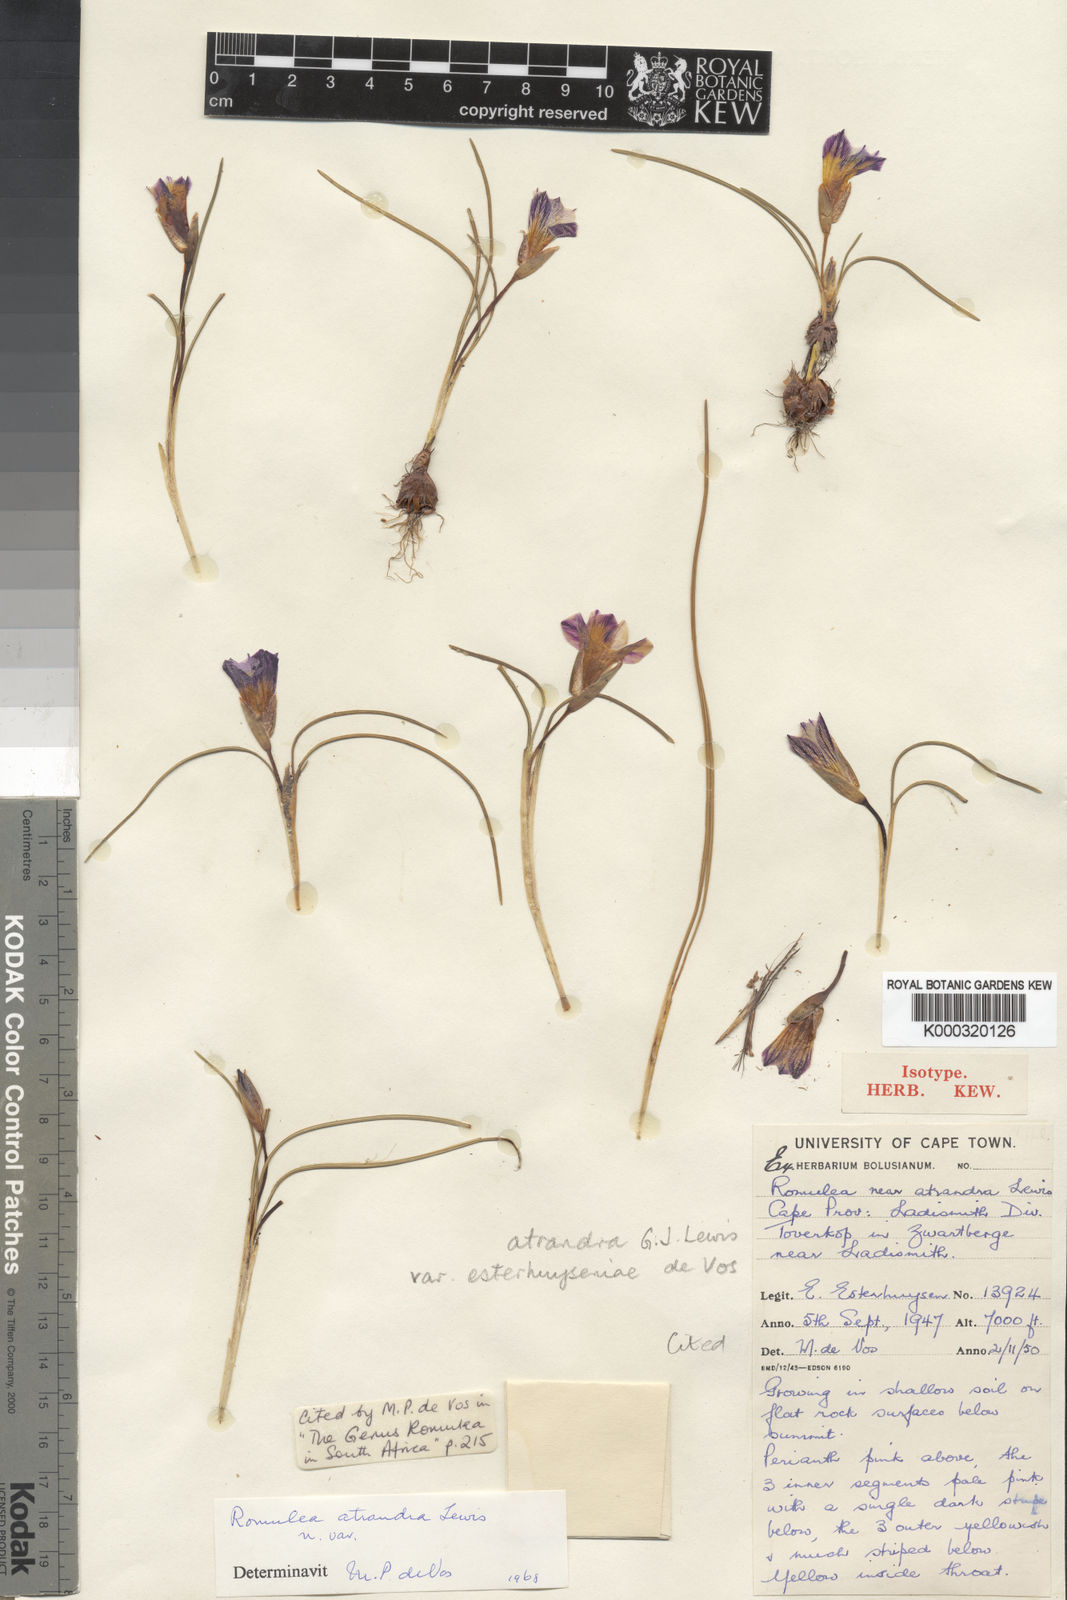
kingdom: Plantae
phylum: Tracheophyta
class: Liliopsida
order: Asparagales
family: Iridaceae
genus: Romulea
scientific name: Romulea atrandra
